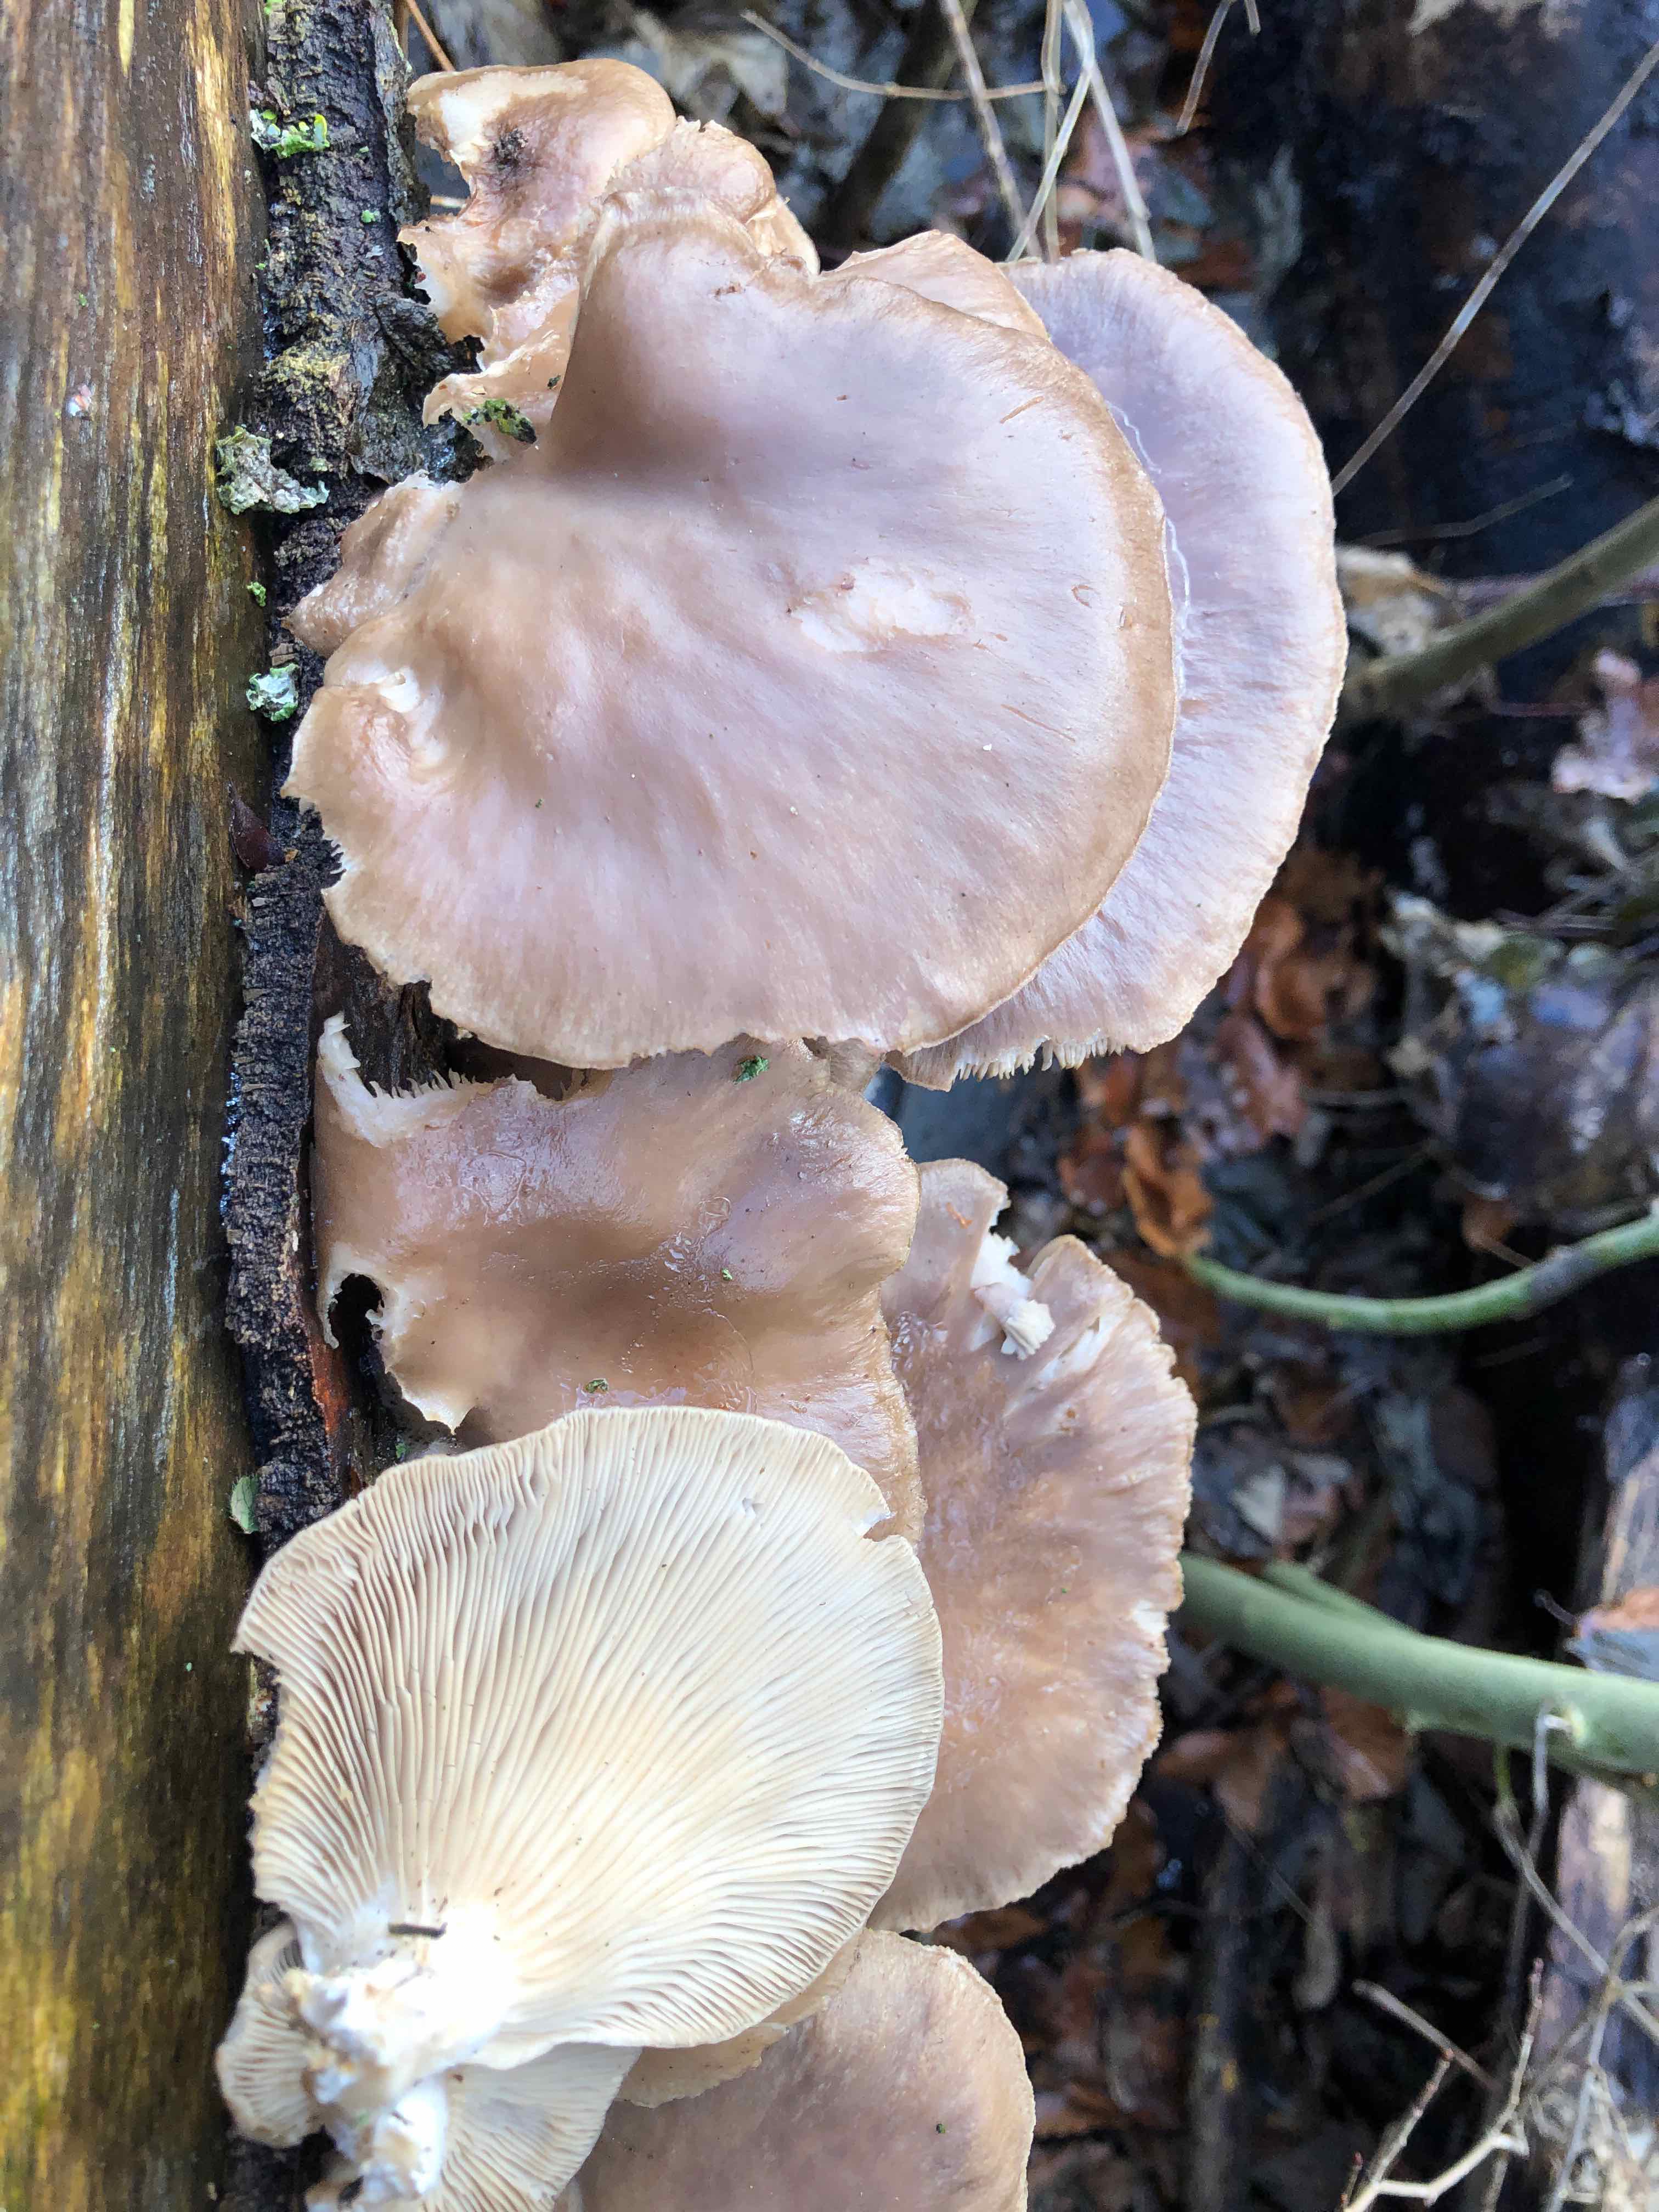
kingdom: Fungi
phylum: Basidiomycota
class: Agaricomycetes
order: Agaricales
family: Pleurotaceae
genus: Pleurotus
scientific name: Pleurotus ostreatus
